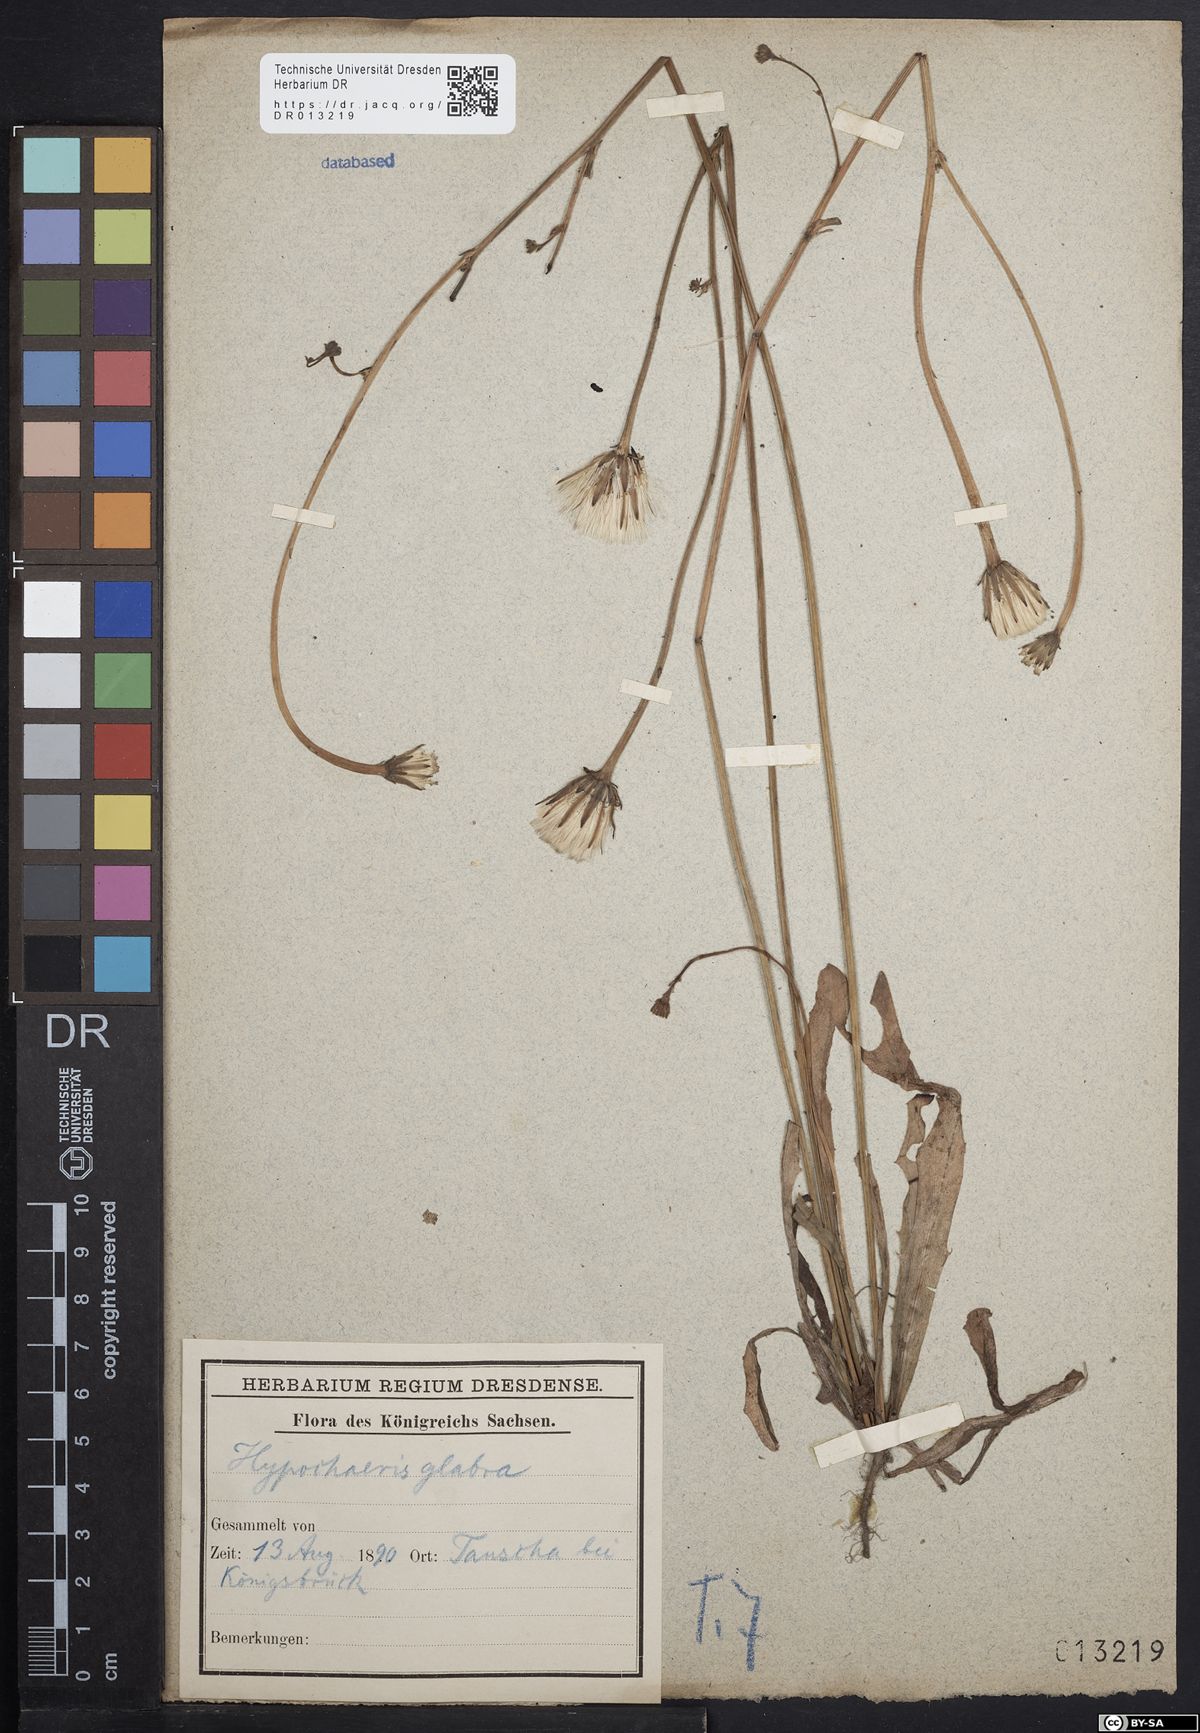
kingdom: Plantae
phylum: Tracheophyta
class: Magnoliopsida
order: Asterales
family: Asteraceae
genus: Hypochaeris
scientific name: Hypochaeris glabra
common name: Smooth catsear
